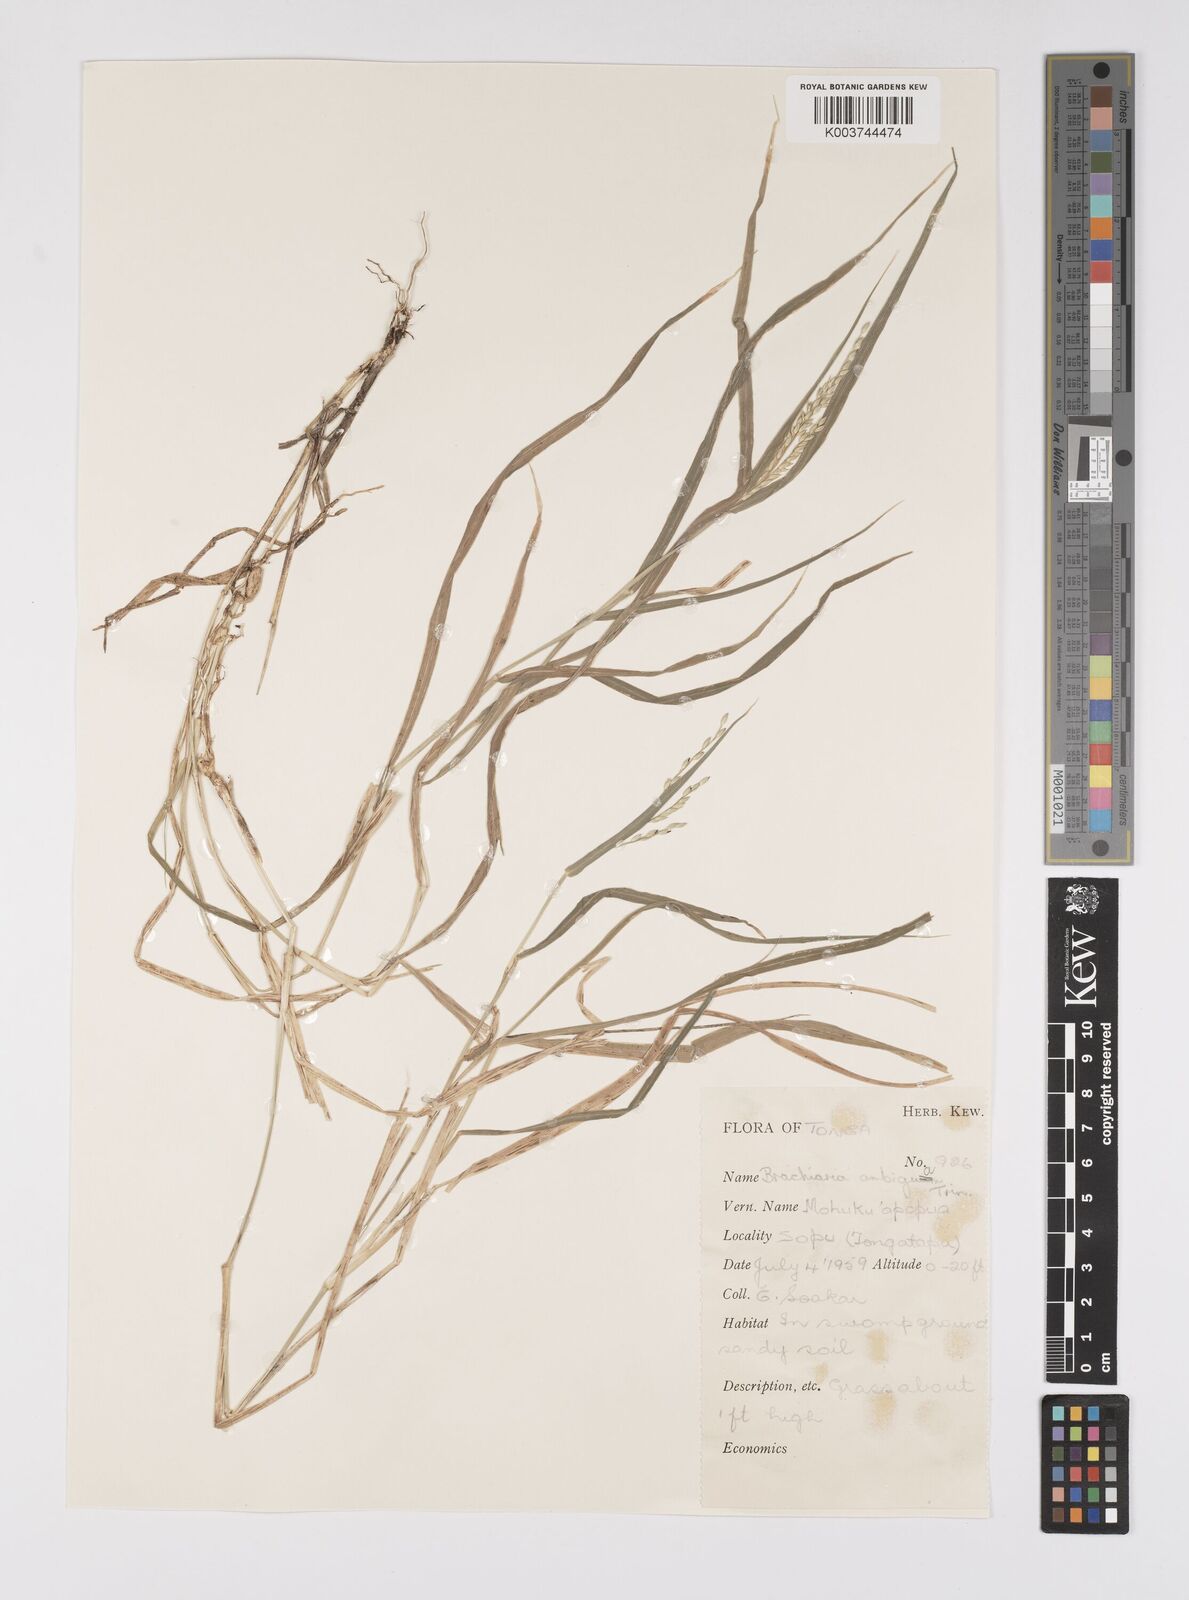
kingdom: Plantae
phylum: Tracheophyta
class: Liliopsida
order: Poales
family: Poaceae
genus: Urochloa
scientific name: Urochloa glumaris
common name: Thurston grass
